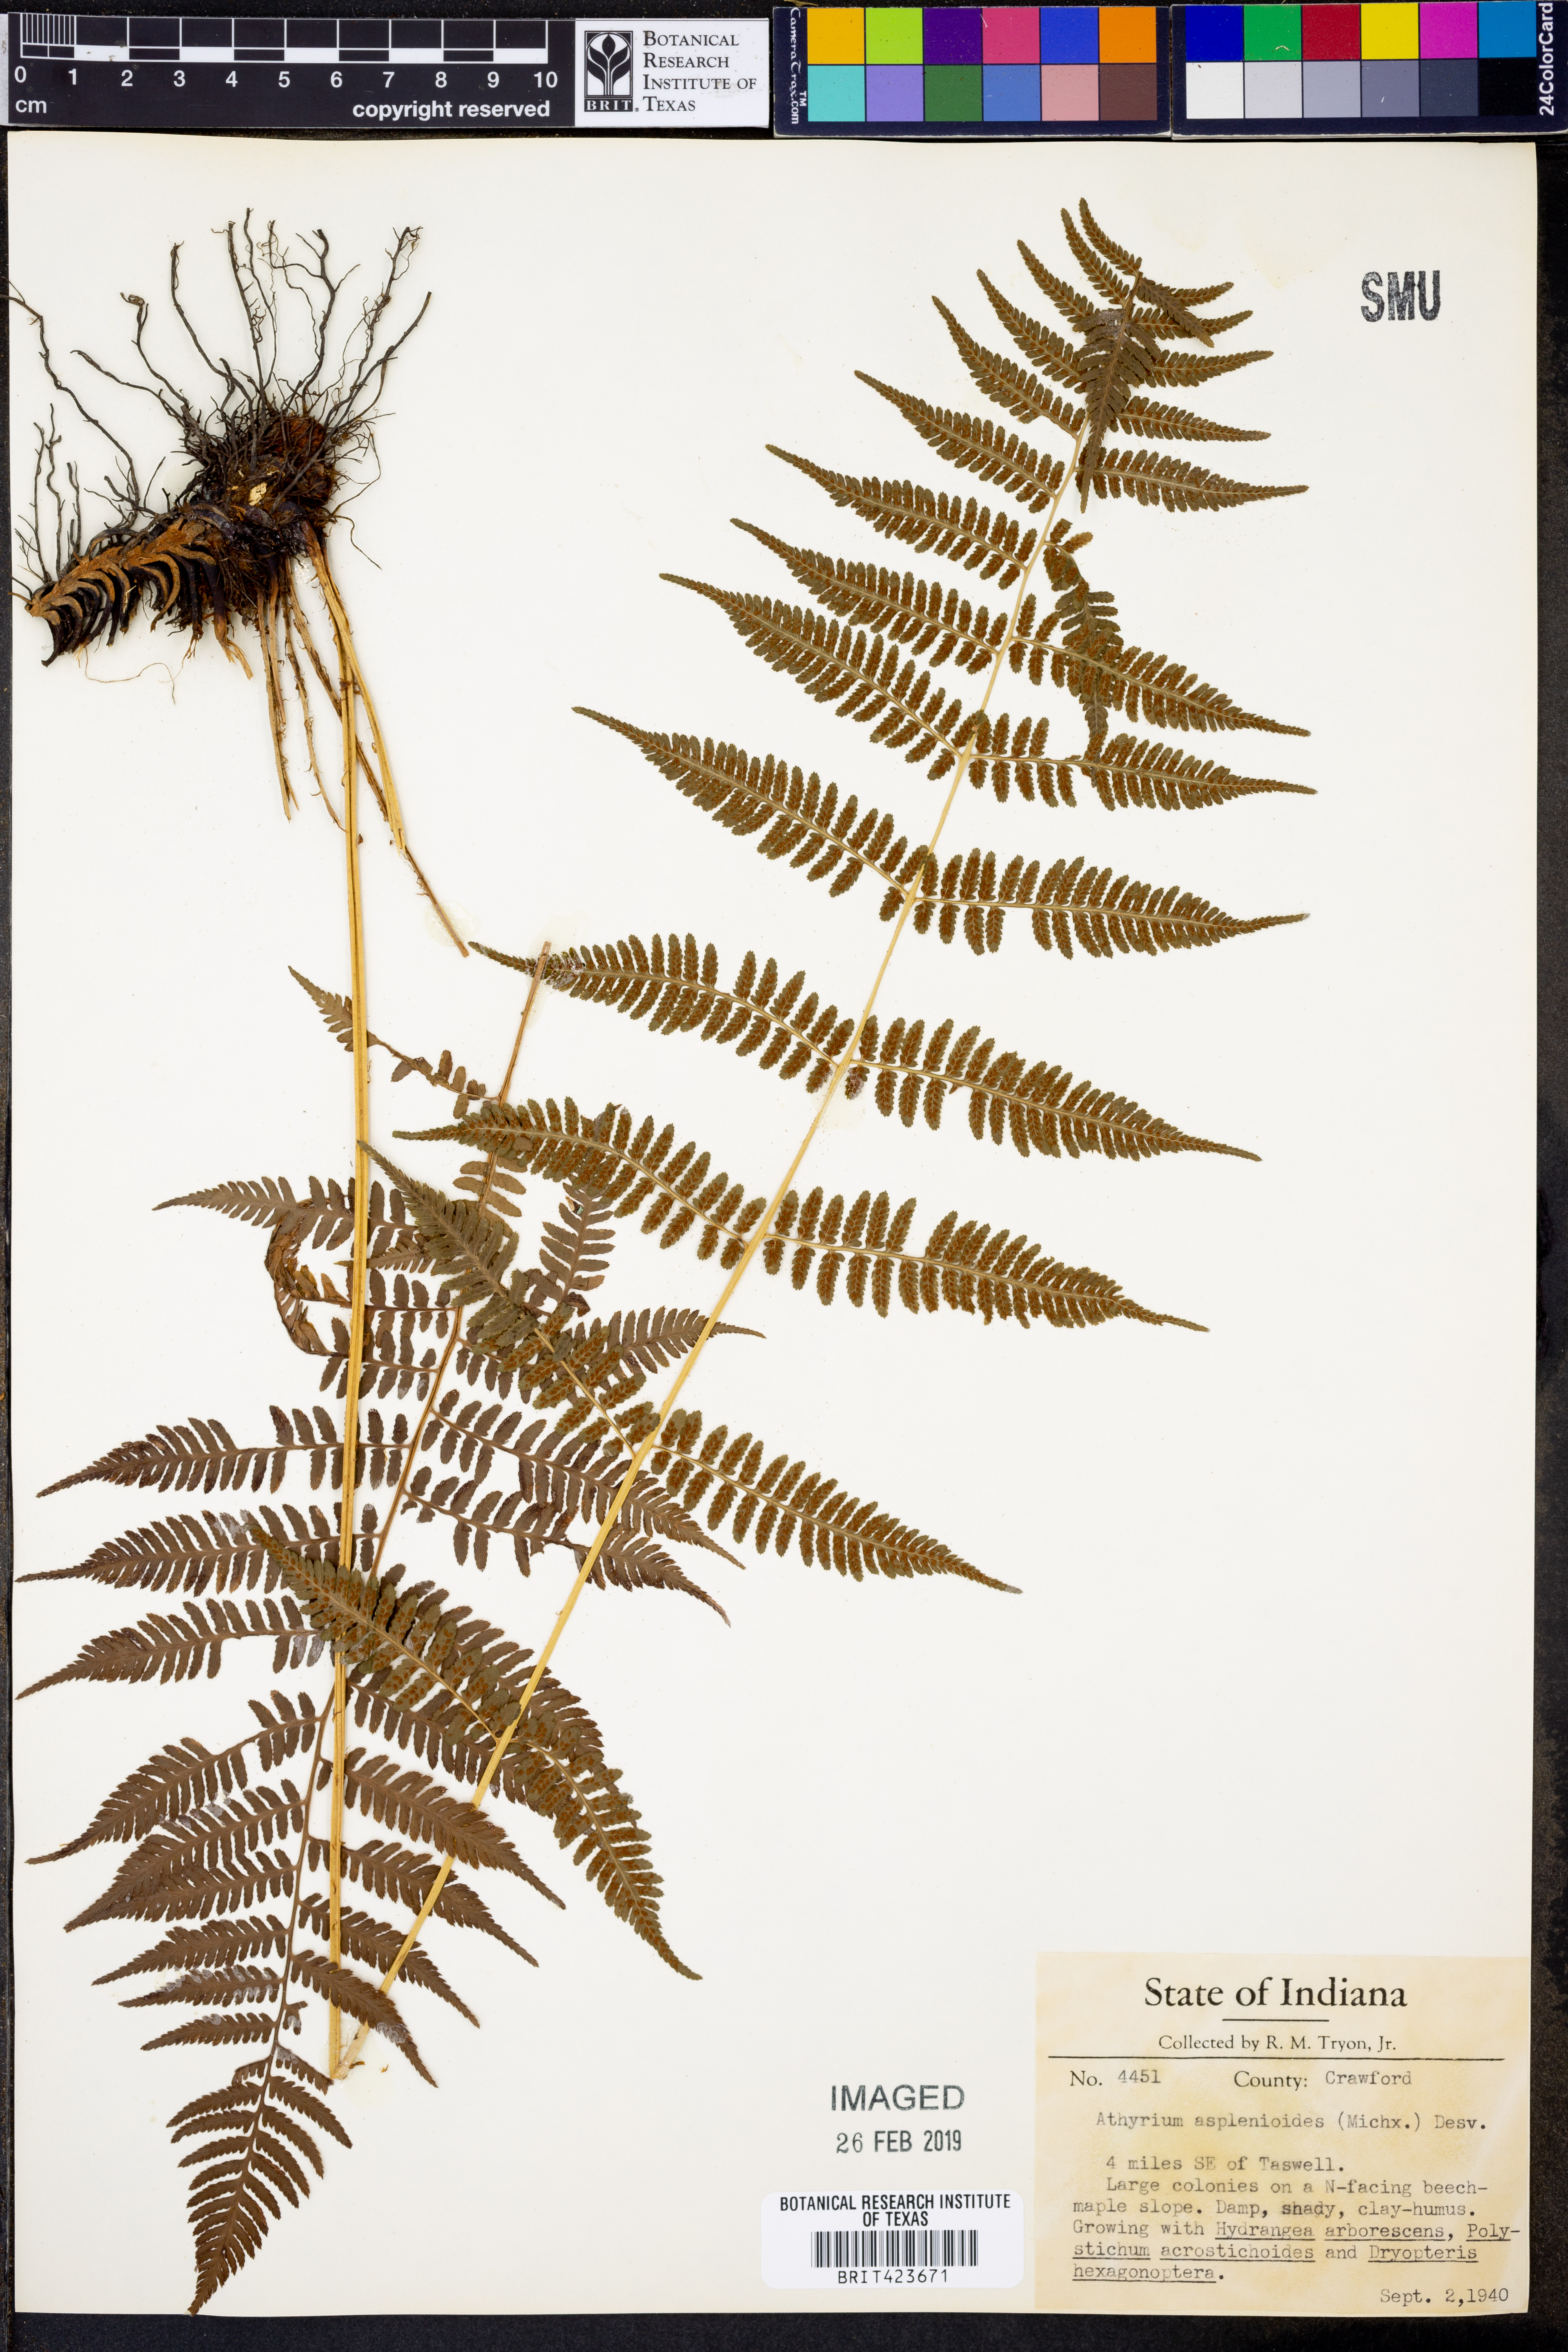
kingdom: Plantae
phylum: Tracheophyta
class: Polypodiopsida
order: Polypodiales
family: Athyriaceae
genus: Athyrium
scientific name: Athyrium asplenioides
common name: Southern lady fern
